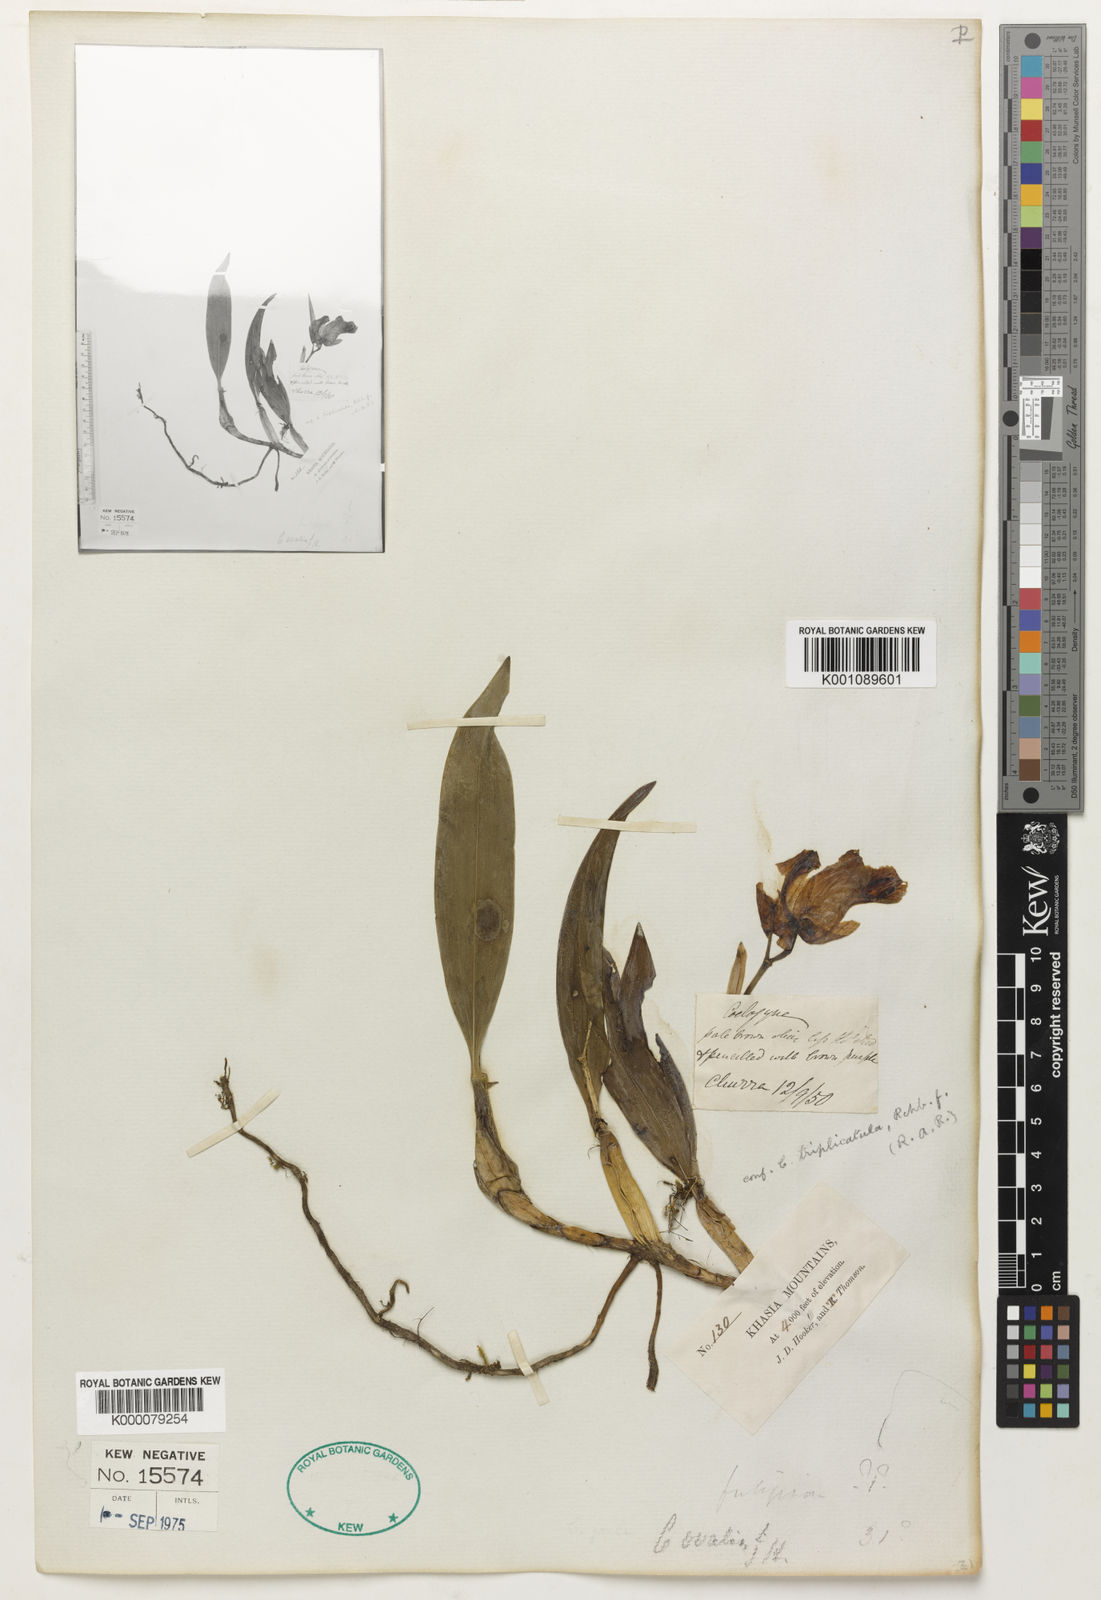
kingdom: Plantae
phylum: Tracheophyta
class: Liliopsida
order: Asparagales
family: Orchidaceae
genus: Coelogyne
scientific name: Coelogyne
